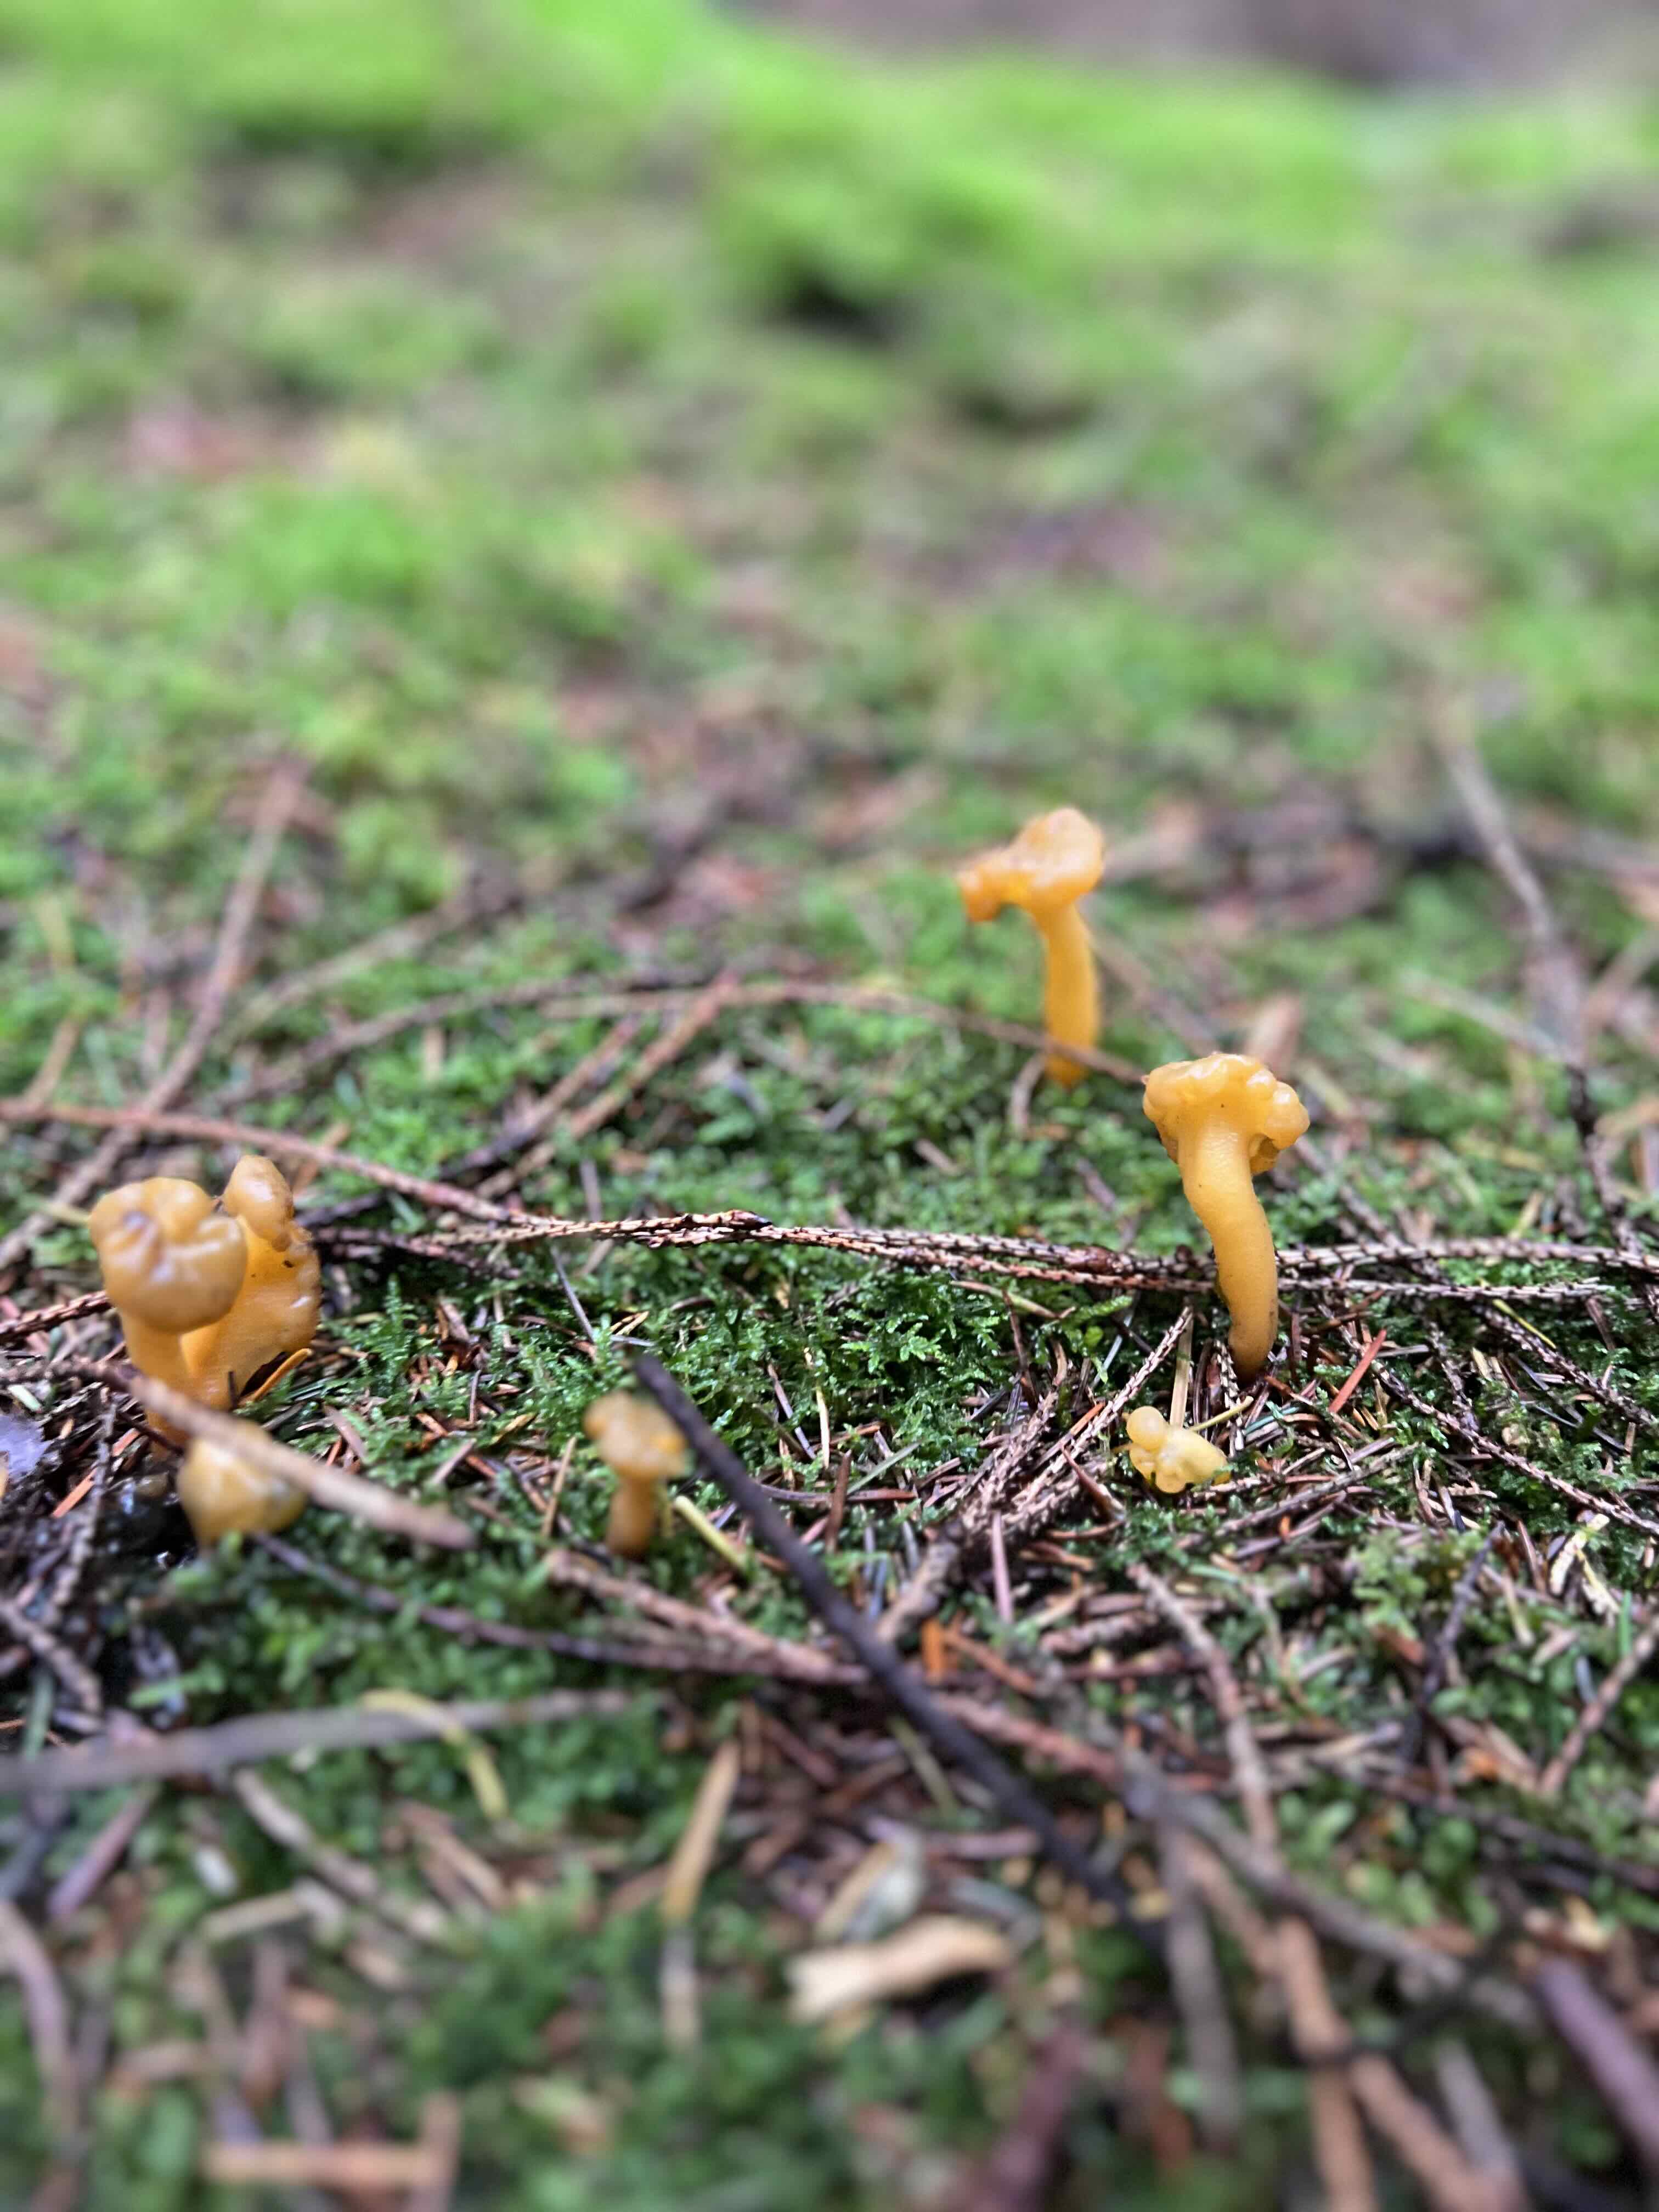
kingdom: Fungi
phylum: Ascomycota
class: Leotiomycetes
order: Leotiales
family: Leotiaceae
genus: Leotia
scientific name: Leotia lubrica
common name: ravsvamp
